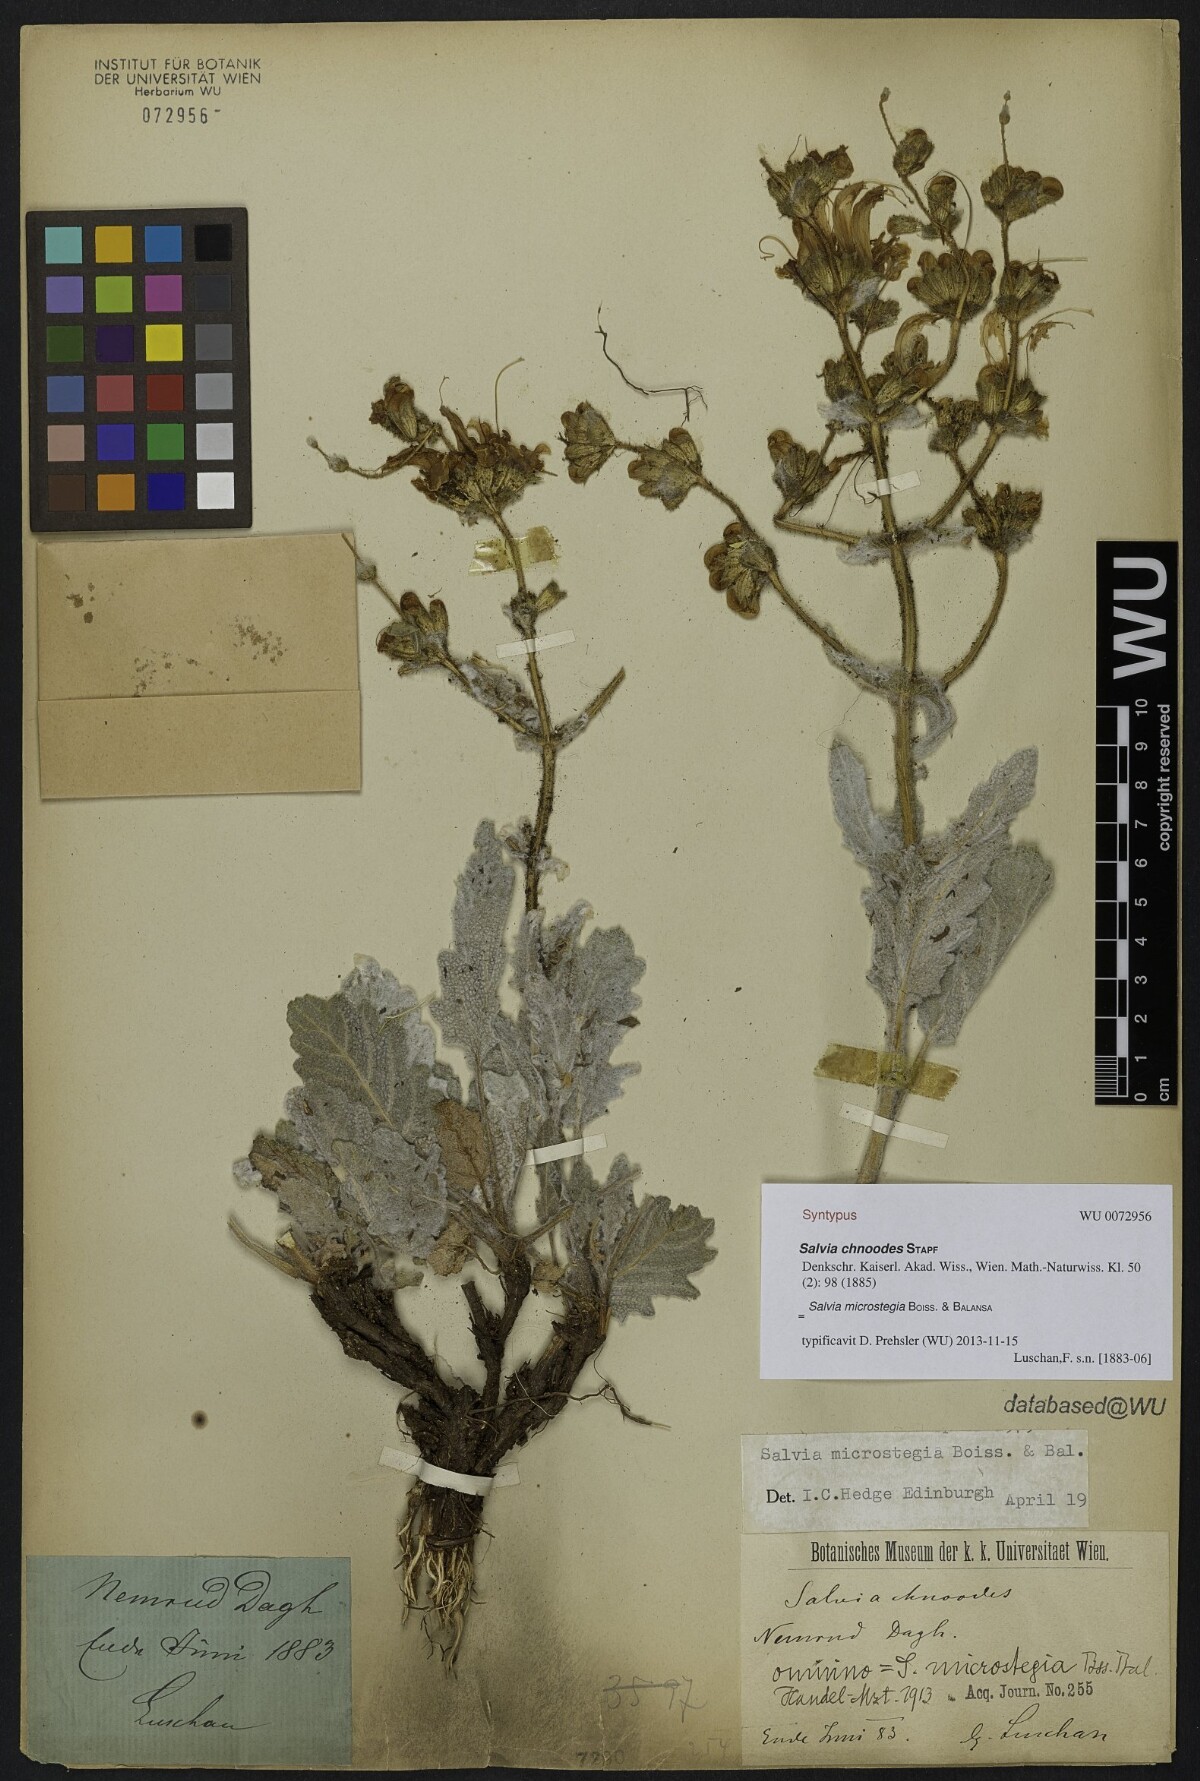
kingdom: Plantae
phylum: Tracheophyta
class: Magnoliopsida
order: Lamiales
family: Lamiaceae
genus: Salvia
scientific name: Salvia microstegia
